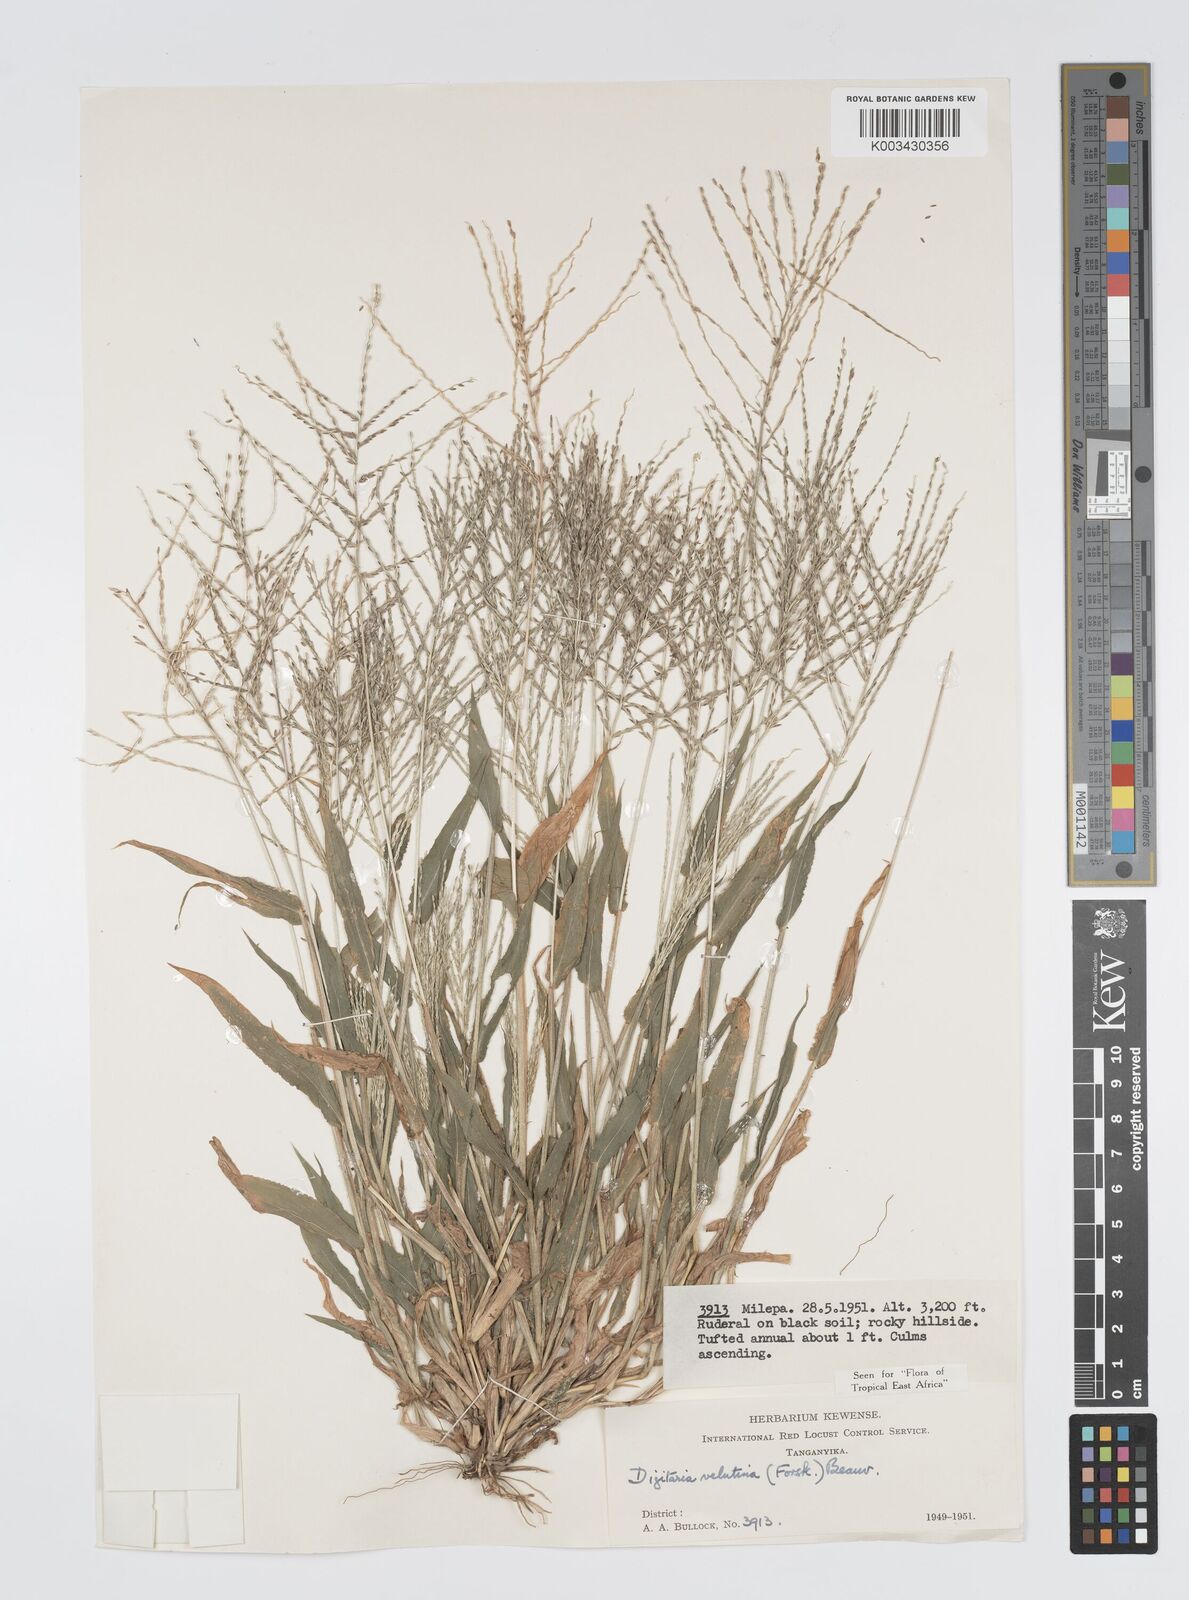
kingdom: Plantae
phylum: Tracheophyta
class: Liliopsida
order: Poales
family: Poaceae
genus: Digitaria
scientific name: Digitaria velutina
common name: Long-plume finger grass
